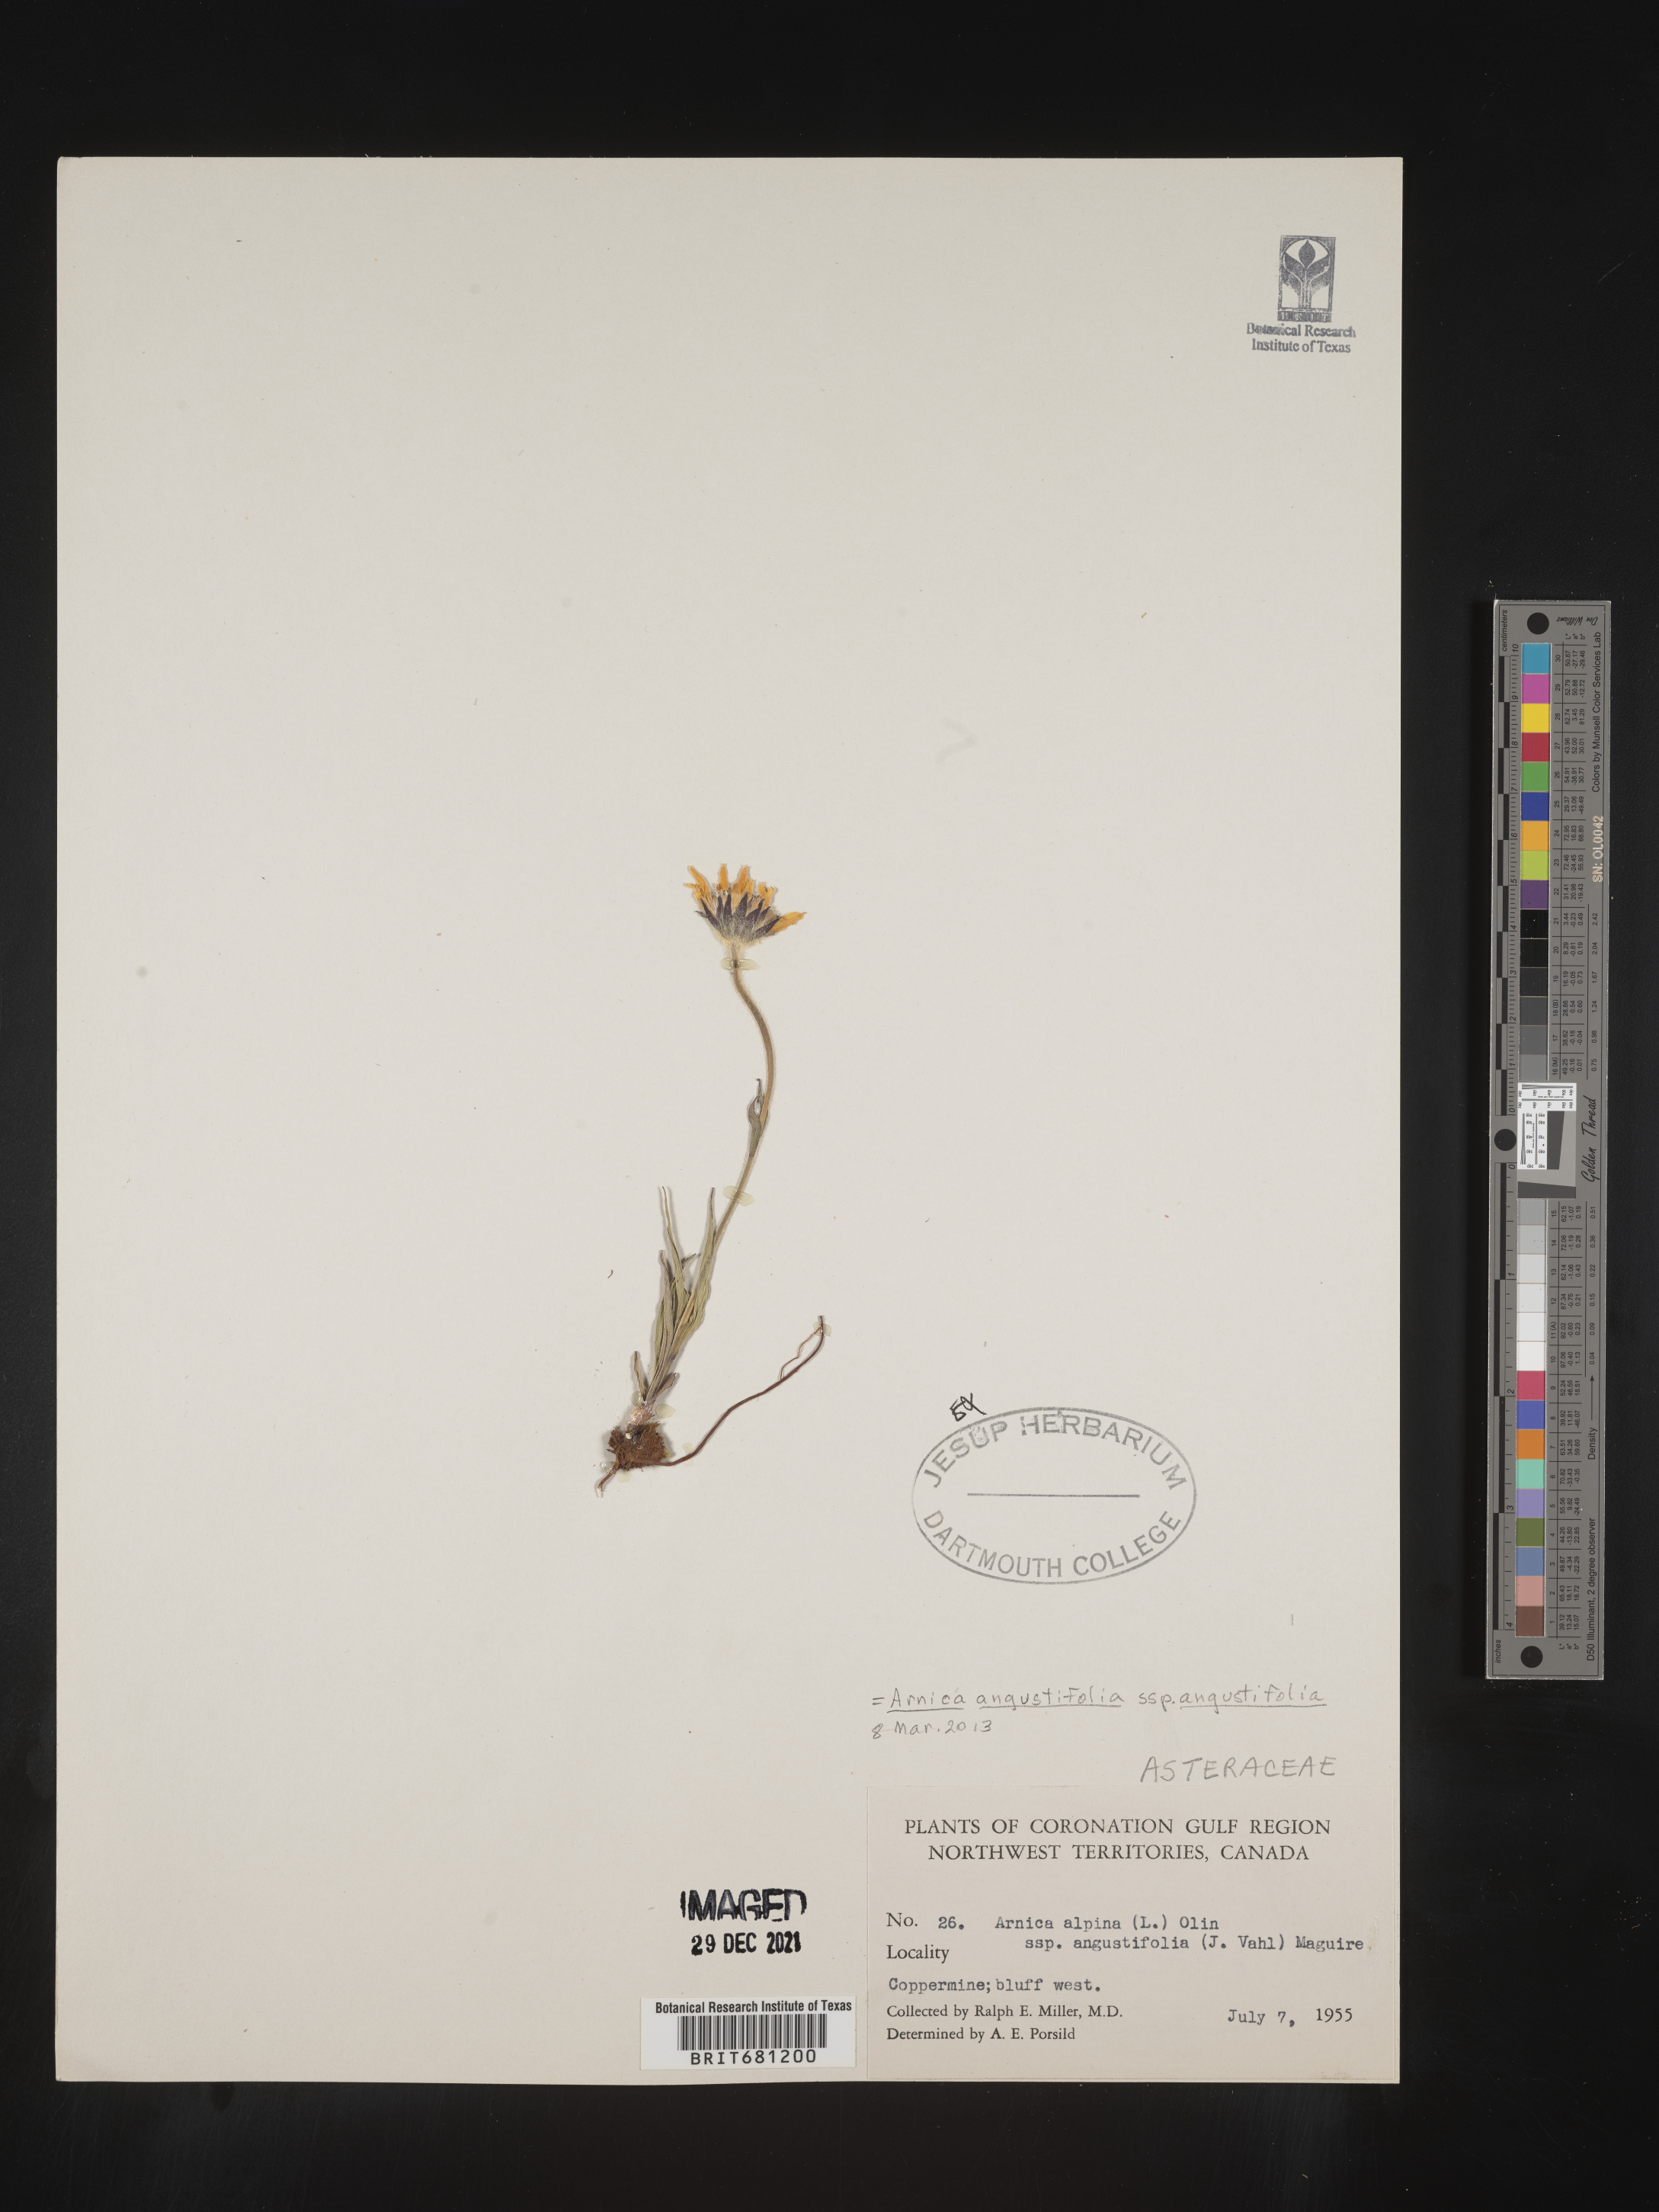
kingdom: Plantae
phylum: Tracheophyta
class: Magnoliopsida
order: Asterales
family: Asteraceae
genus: Arnica
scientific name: Arnica angustifolia
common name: Arctic arnica
